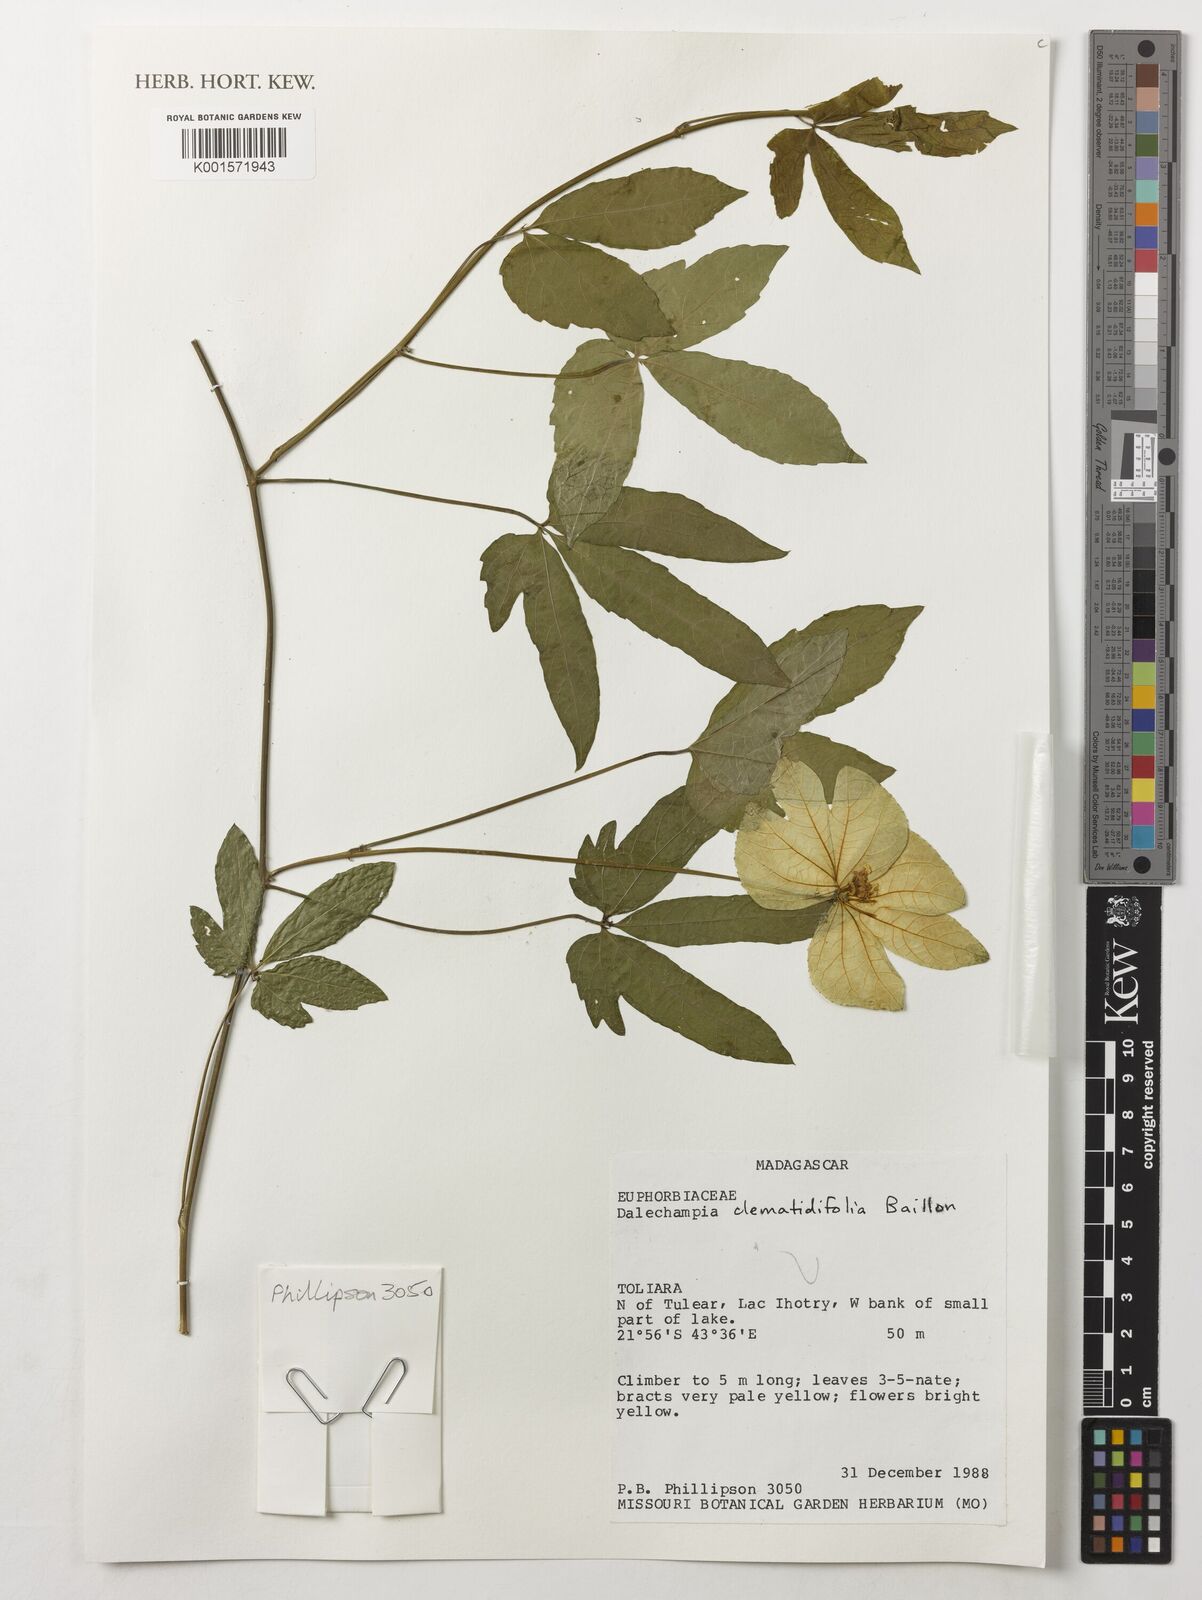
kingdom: Plantae
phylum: Tracheophyta
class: Magnoliopsida
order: Malpighiales
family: Euphorbiaceae
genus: Dalechampia
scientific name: Dalechampia clematidifolia
